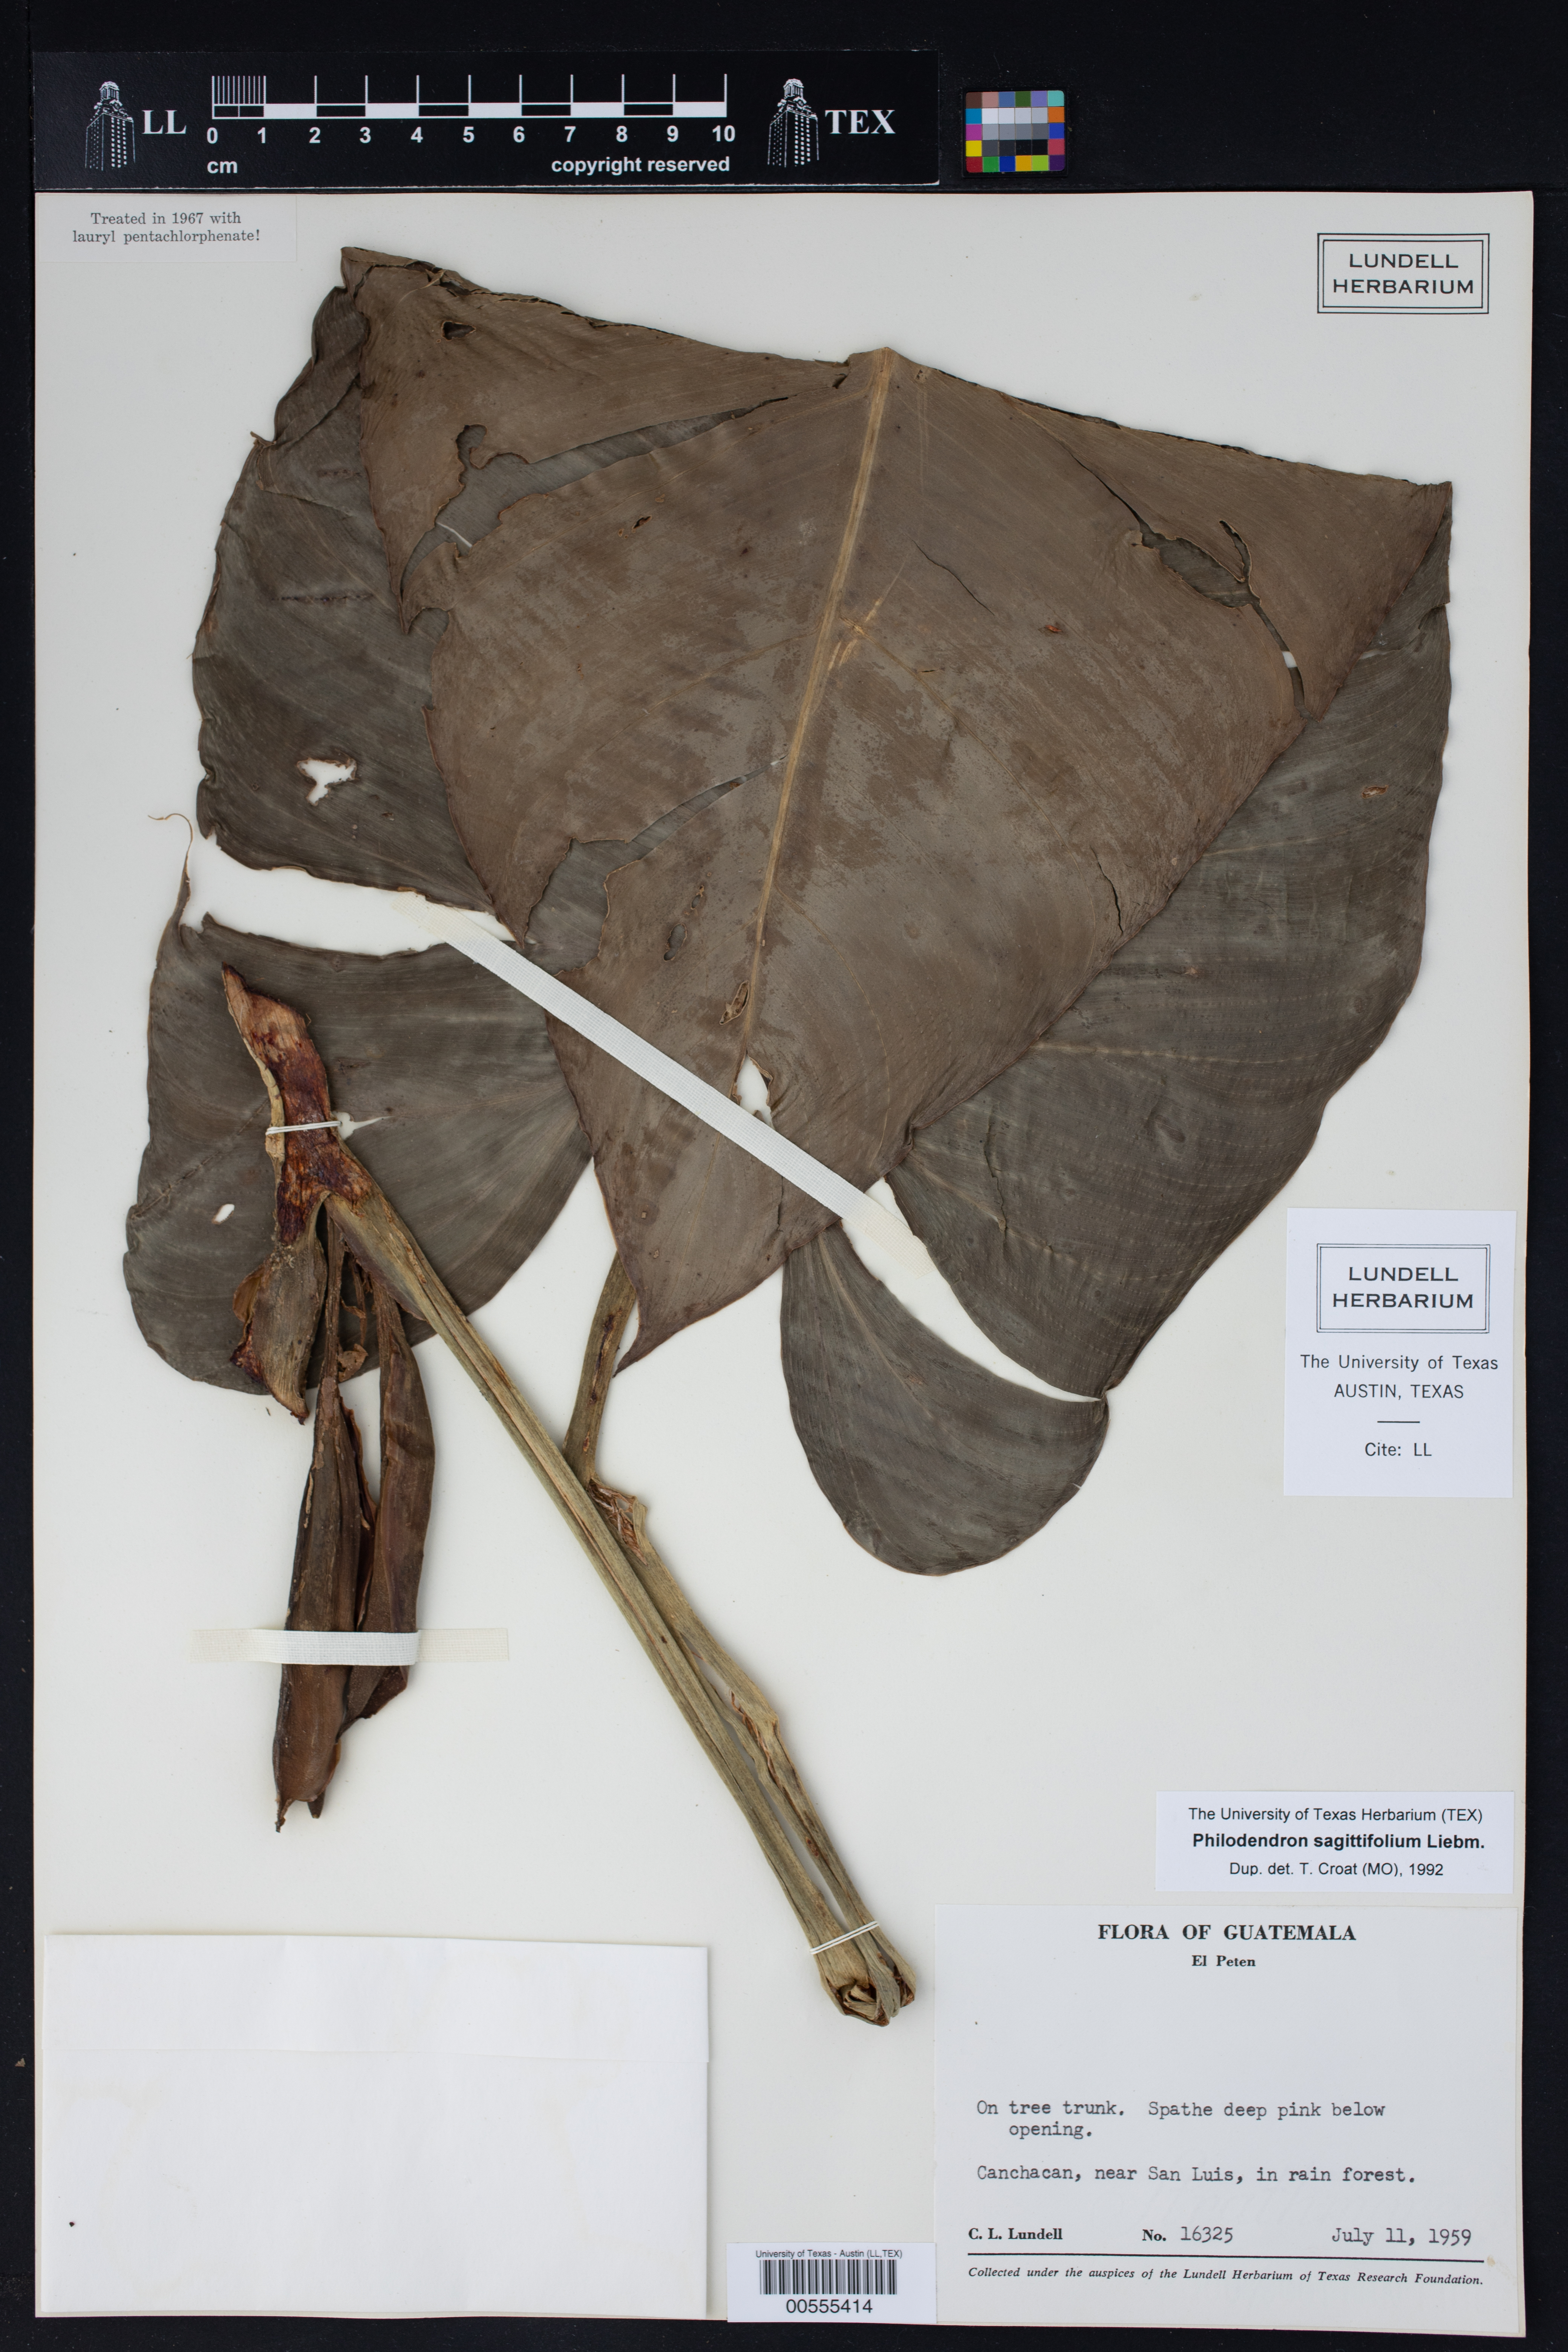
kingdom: Plantae
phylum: Tracheophyta
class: Liliopsida
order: Alismatales
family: Araceae
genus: Philodendron
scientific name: Philodendron sagittifolium
